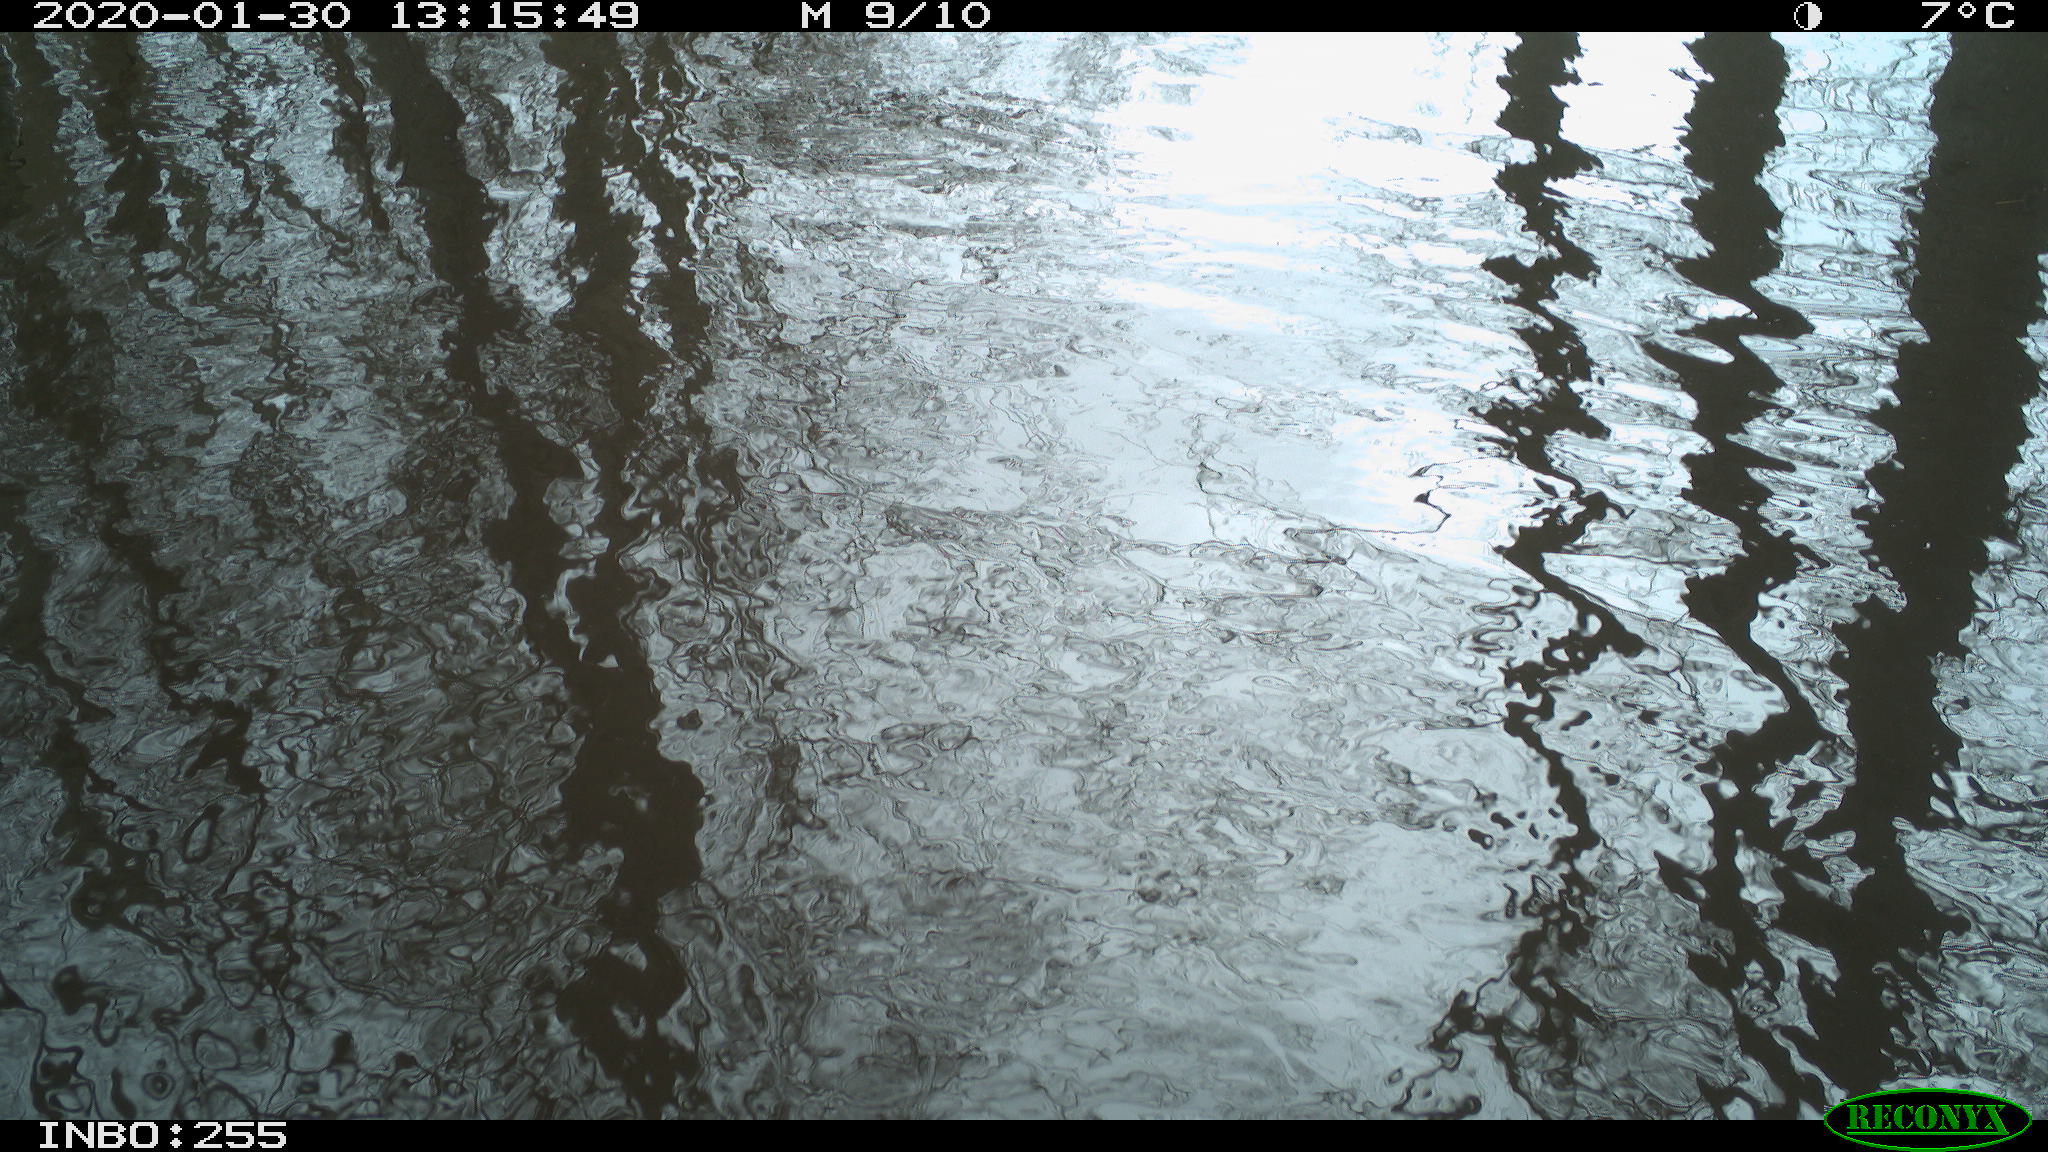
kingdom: Animalia
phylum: Chordata
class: Aves
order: Gruiformes
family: Rallidae
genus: Fulica
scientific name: Fulica atra
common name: Eurasian coot
